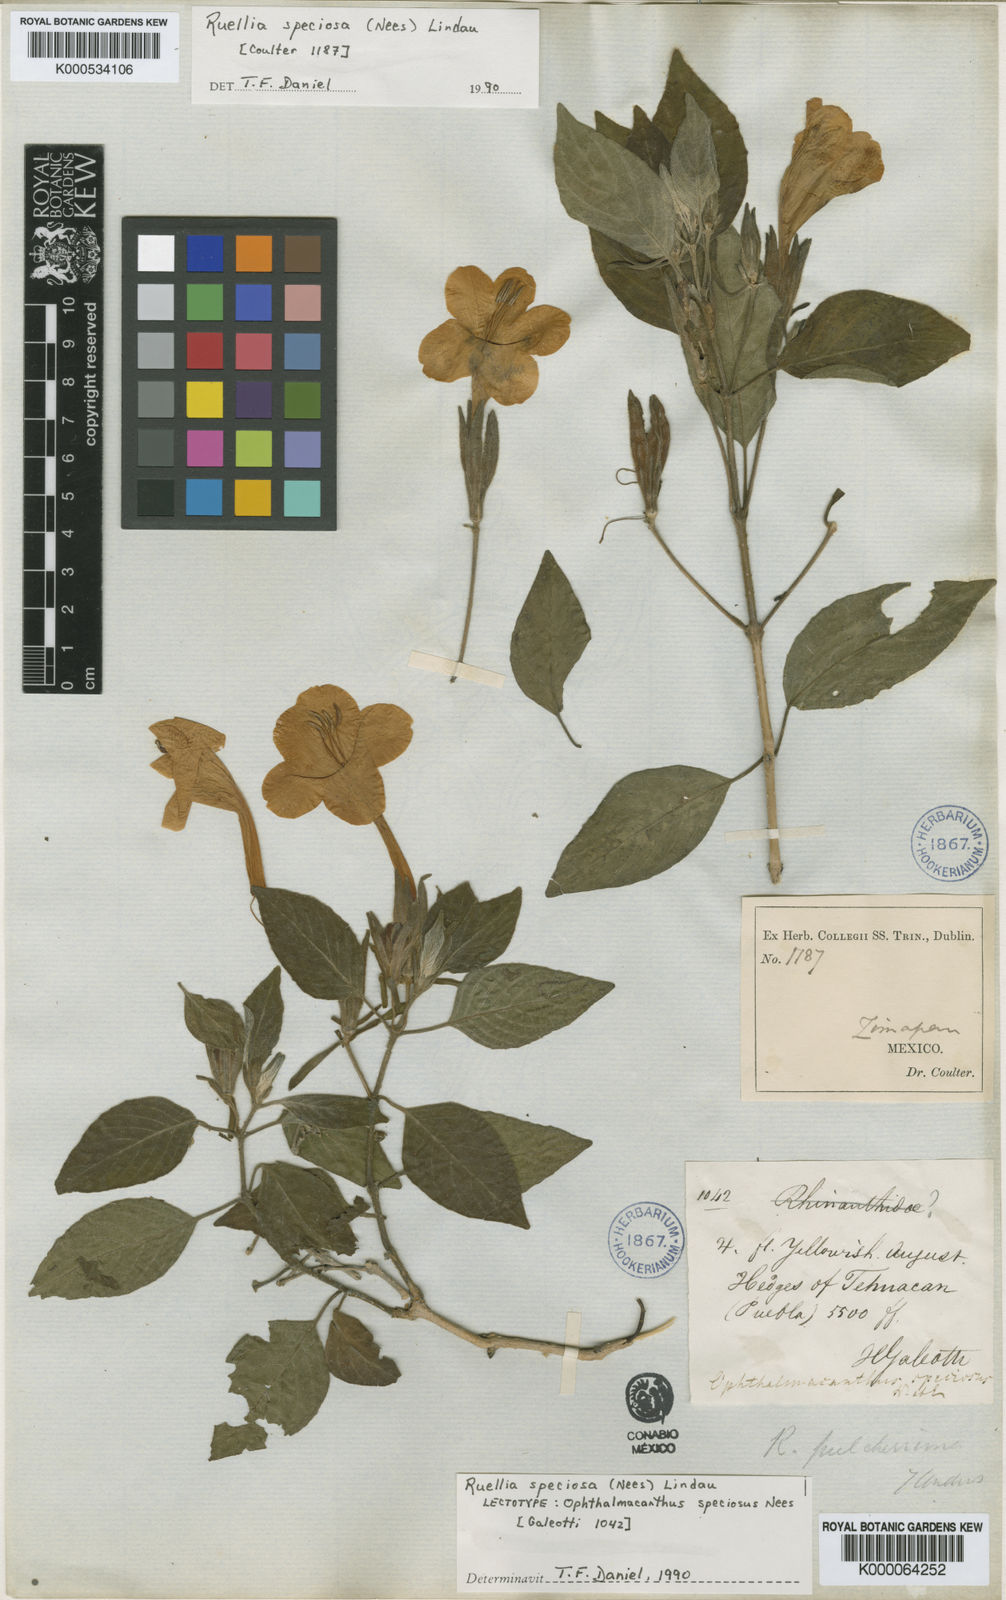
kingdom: Plantae
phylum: Tracheophyta
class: Magnoliopsida
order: Lamiales
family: Acanthaceae
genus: Ruellia
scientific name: Ruellia
